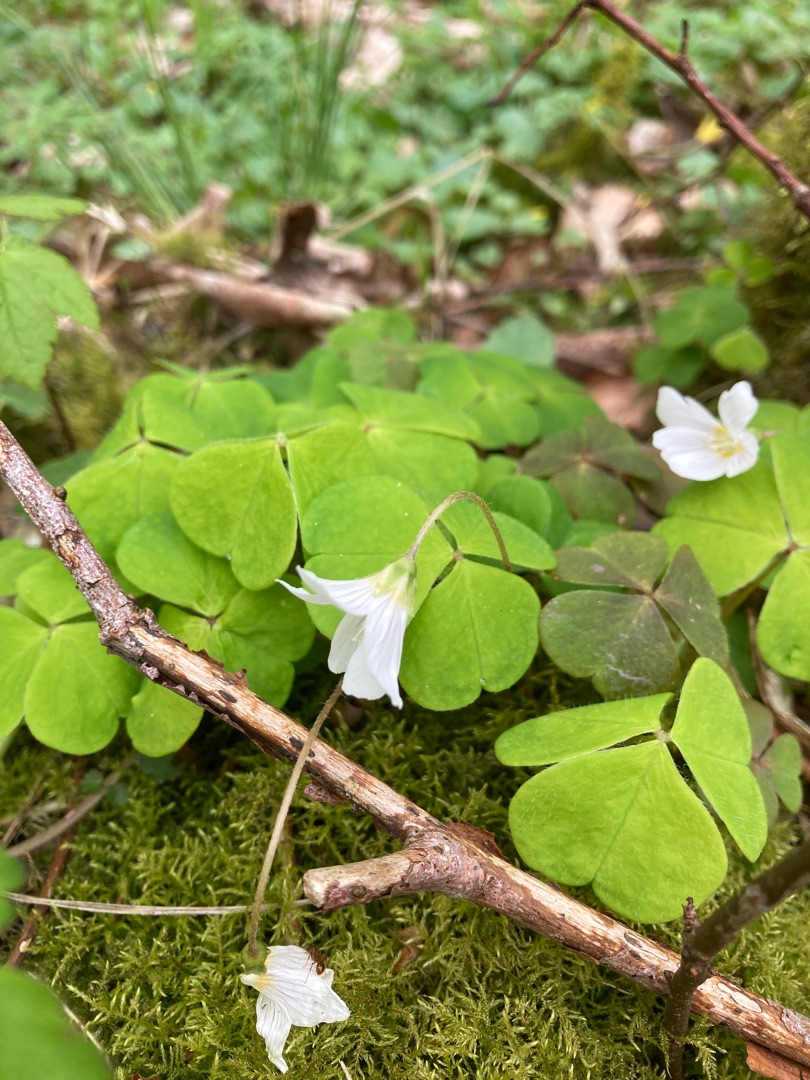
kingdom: Plantae
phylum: Tracheophyta
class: Magnoliopsida
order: Oxalidales
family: Oxalidaceae
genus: Oxalis
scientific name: Oxalis acetosella
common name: Skovsyre
